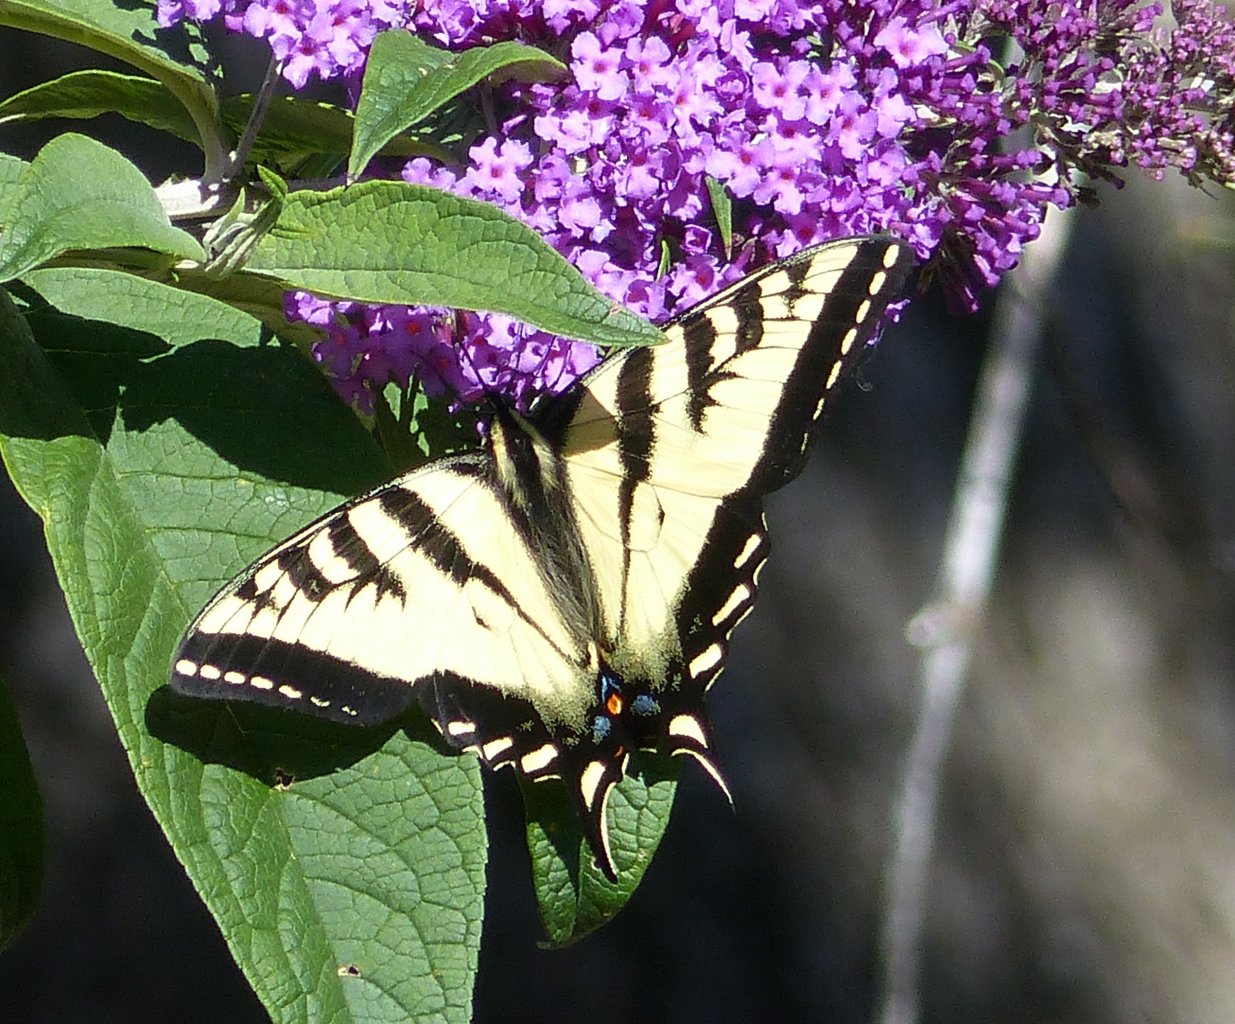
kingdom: Animalia
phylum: Arthropoda
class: Insecta
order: Lepidoptera
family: Papilionidae
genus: Pterourus
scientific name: Pterourus rutulus
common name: Western Tiger Swallowtail
